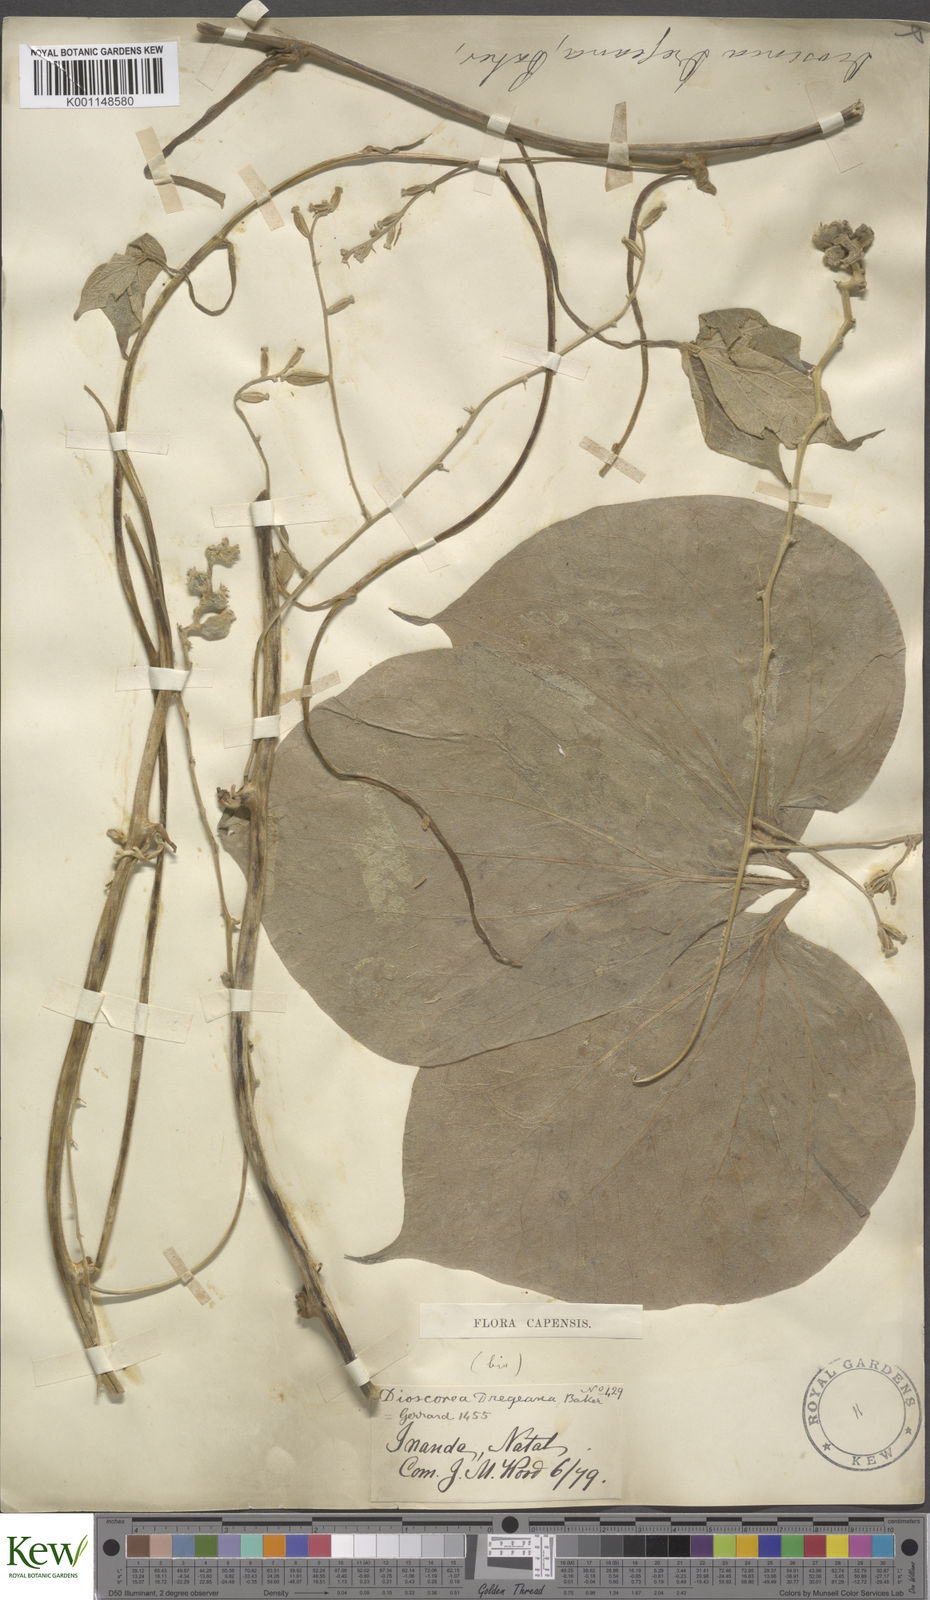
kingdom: Plantae
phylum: Tracheophyta
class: Liliopsida
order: Dioscoreales
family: Dioscoreaceae
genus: Dioscorea
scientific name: Dioscorea dregeana
